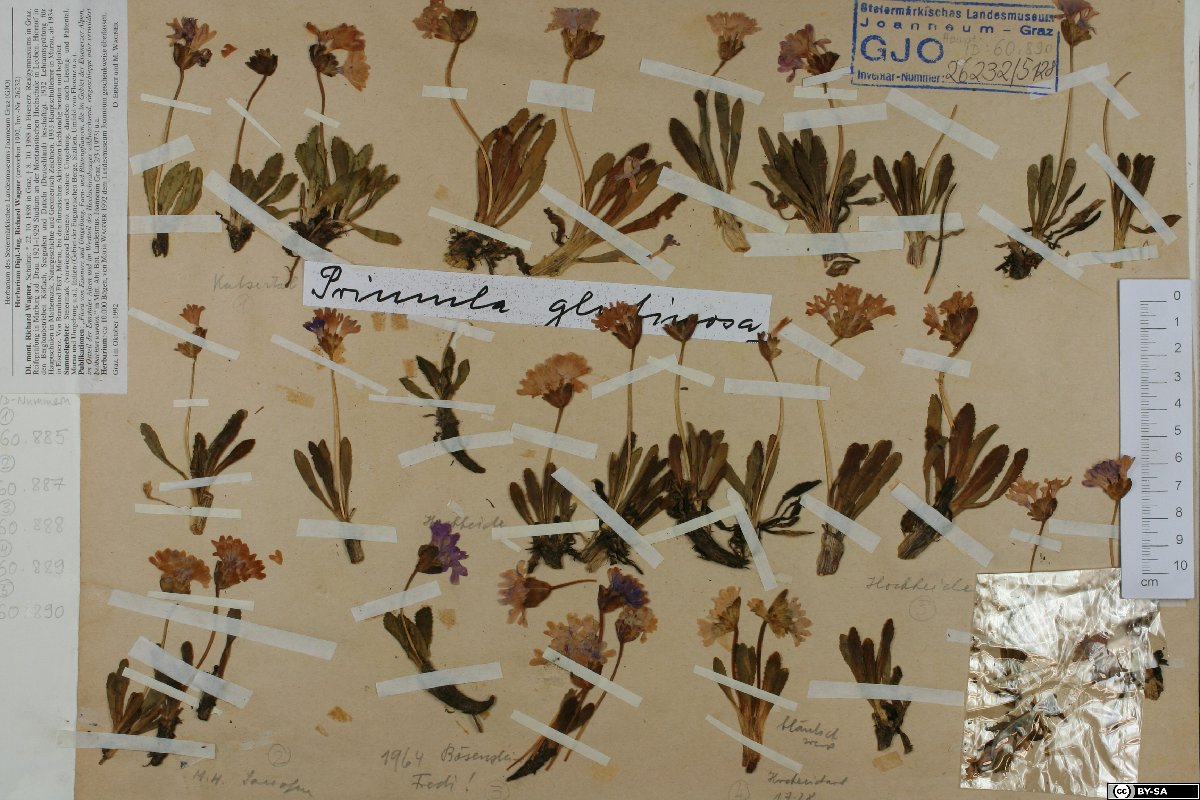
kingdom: Plantae
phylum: Tracheophyta
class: Magnoliopsida
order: Ericales
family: Primulaceae
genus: Primula
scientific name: Primula glutinosa
